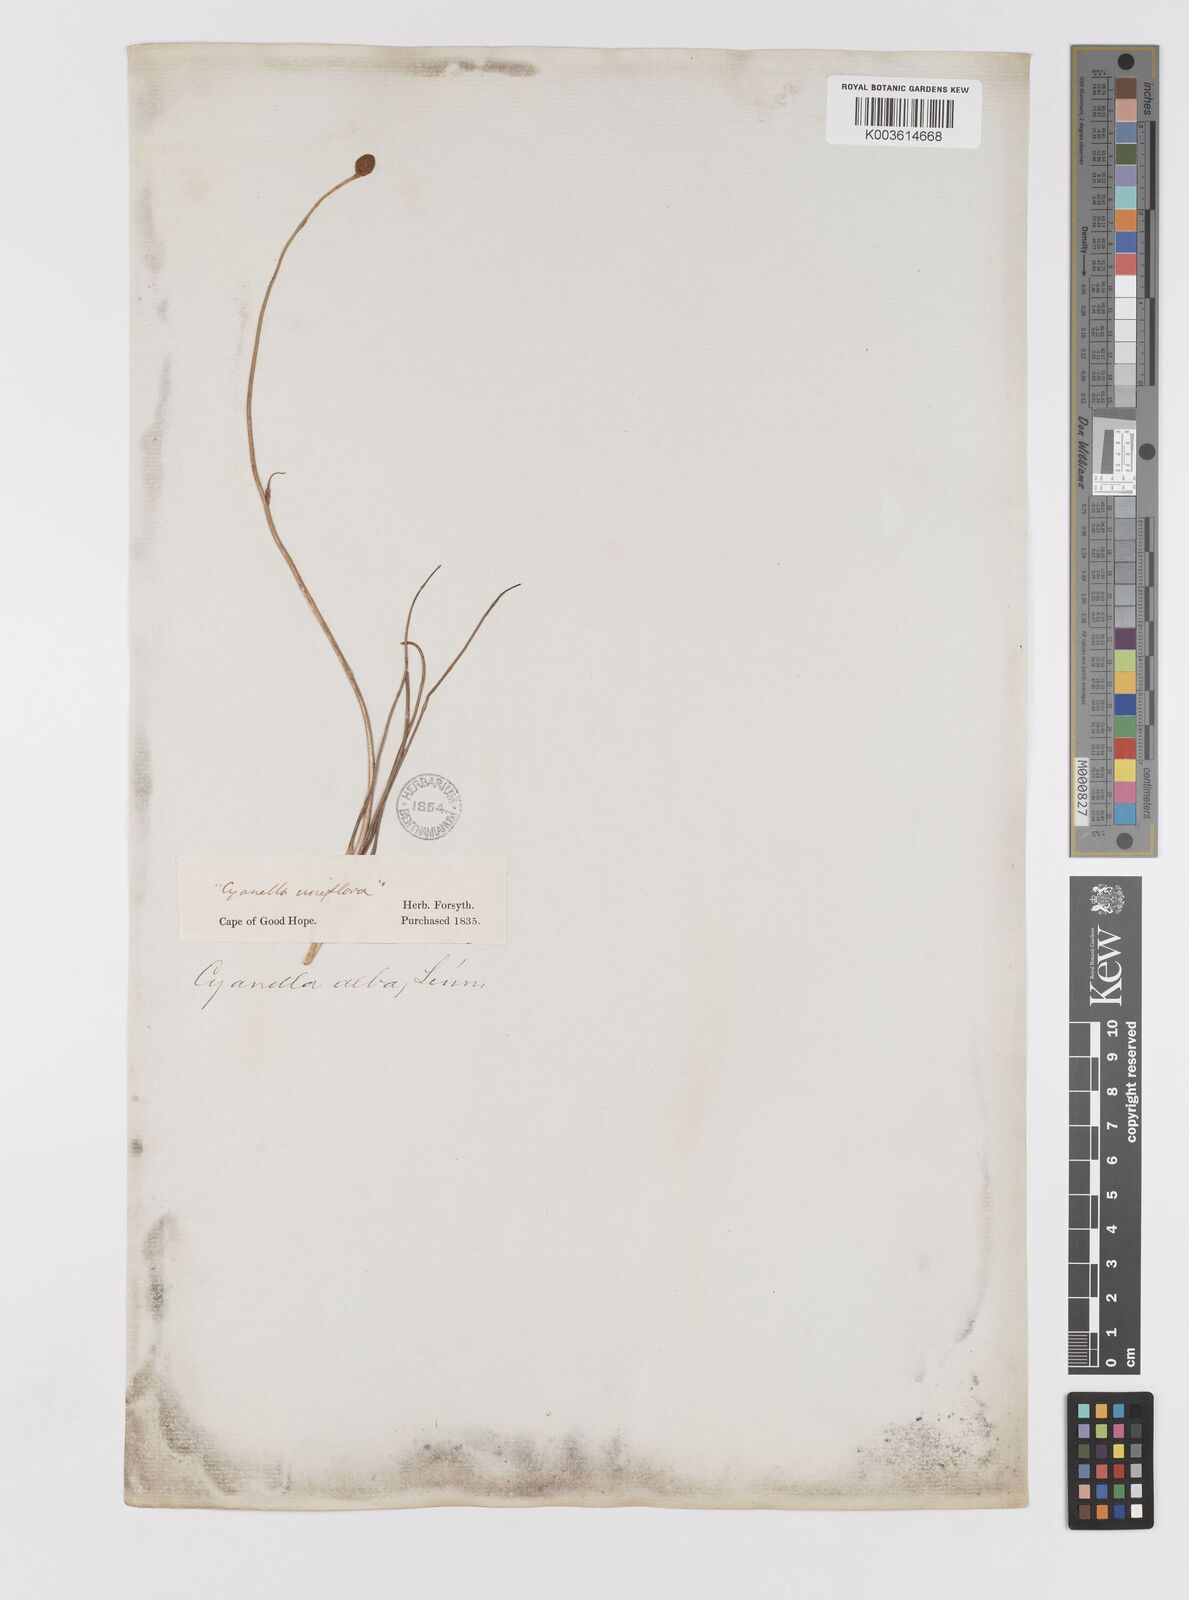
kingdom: Plantae
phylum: Tracheophyta
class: Liliopsida
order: Asparagales
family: Tecophilaeaceae
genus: Cyanella
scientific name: Cyanella alba
